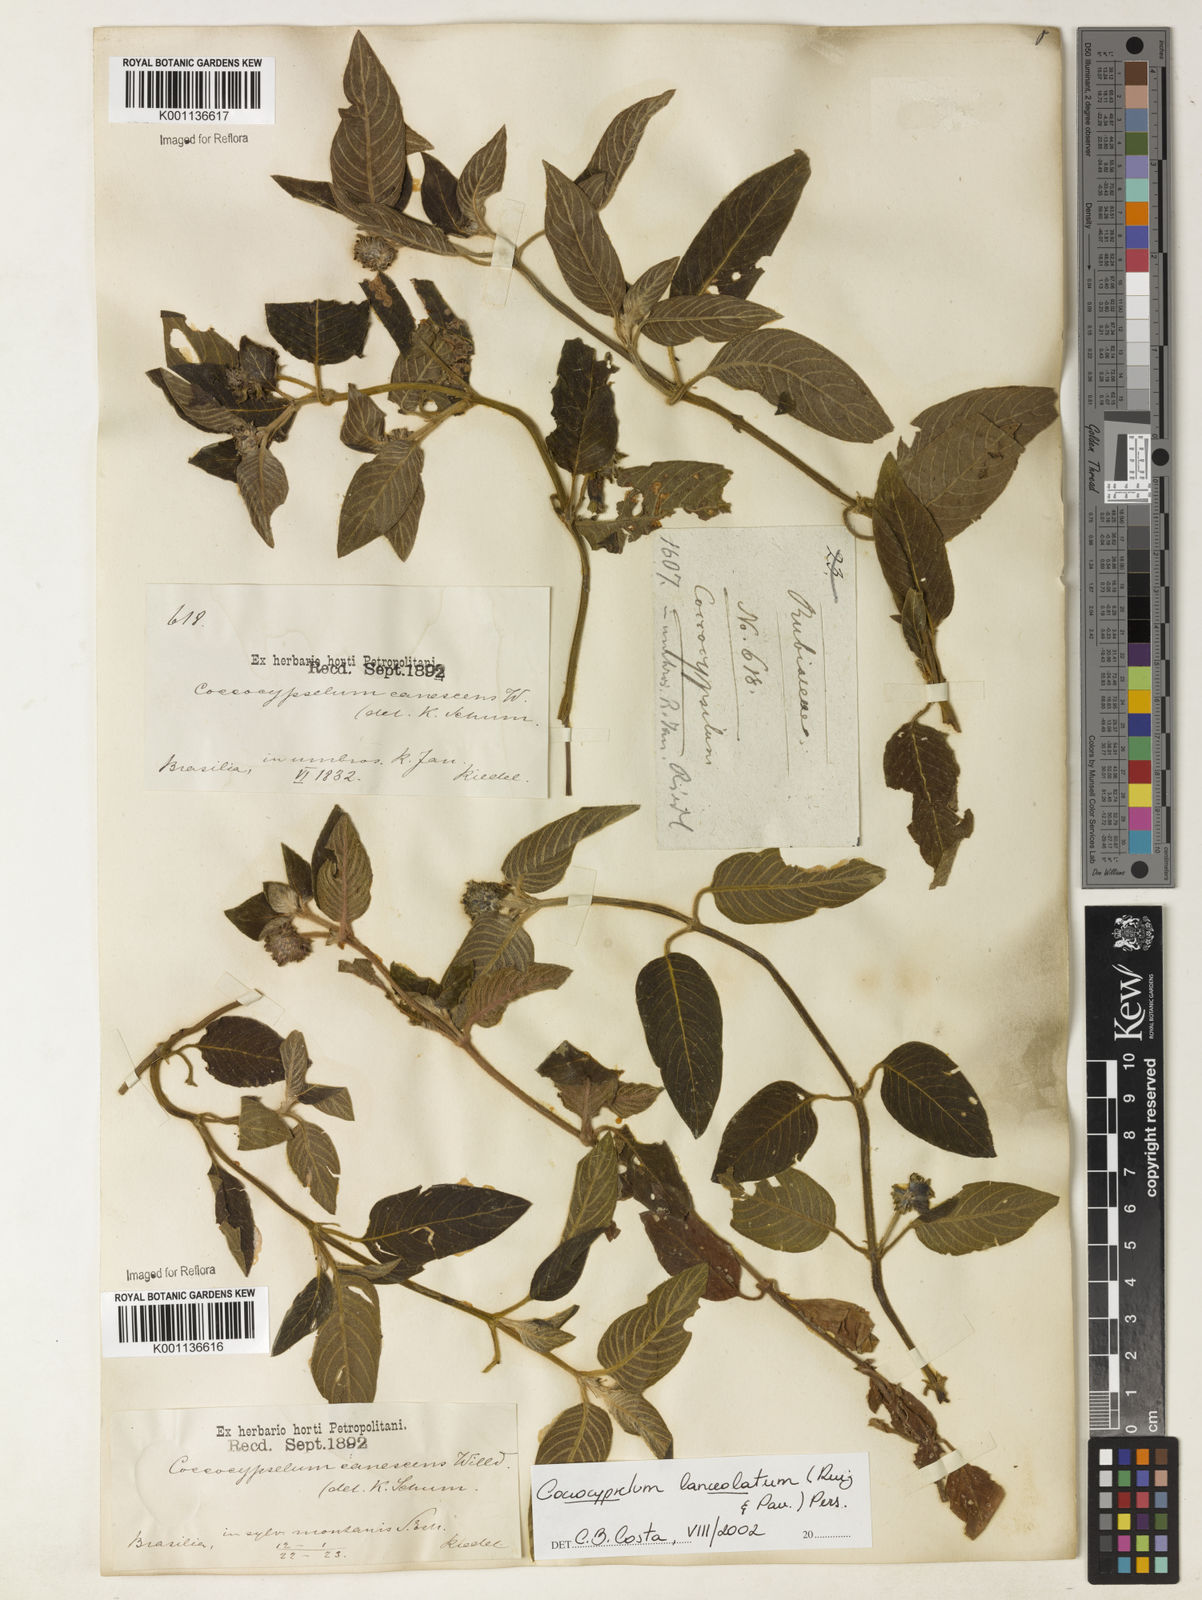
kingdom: Plantae
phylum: Tracheophyta
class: Magnoliopsida
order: Gentianales
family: Rubiaceae
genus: Coccocypselum
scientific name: Coccocypselum lanceolatum
